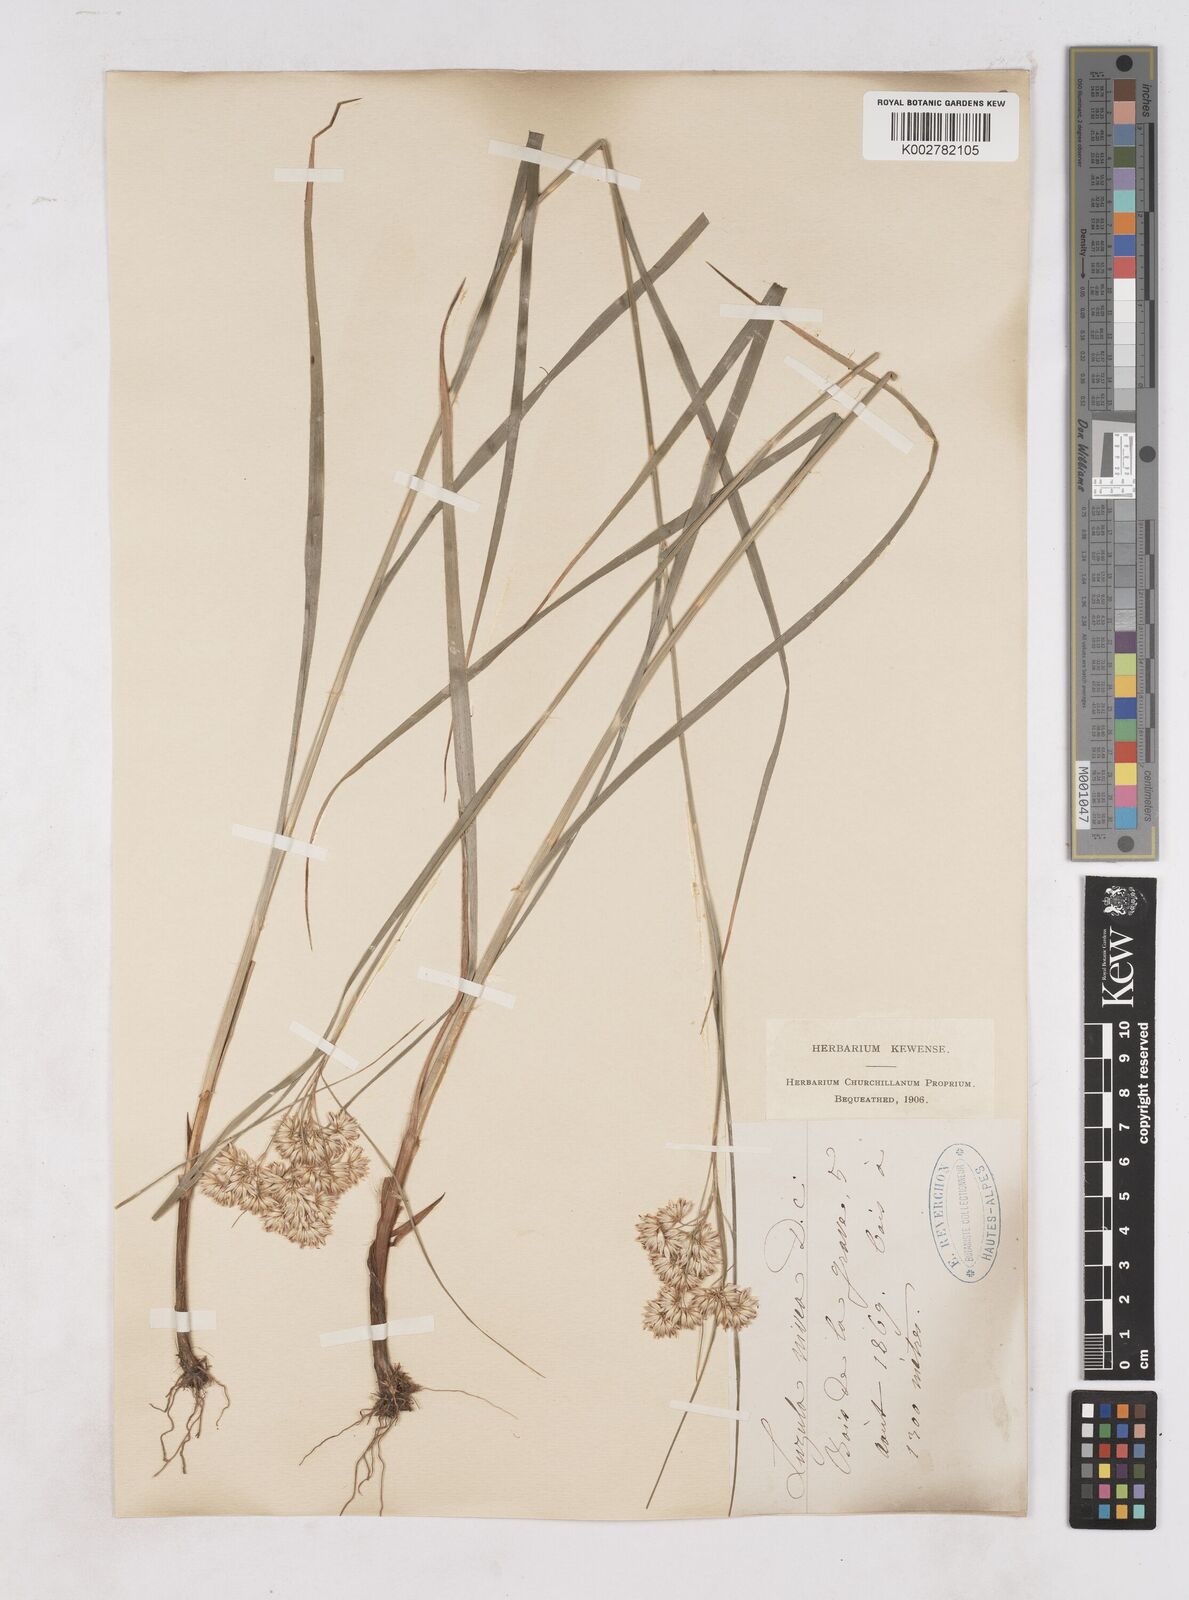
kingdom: Plantae
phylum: Tracheophyta
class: Liliopsida
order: Poales
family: Juncaceae
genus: Luzula
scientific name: Luzula nivea
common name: Snow-white wood-rush
